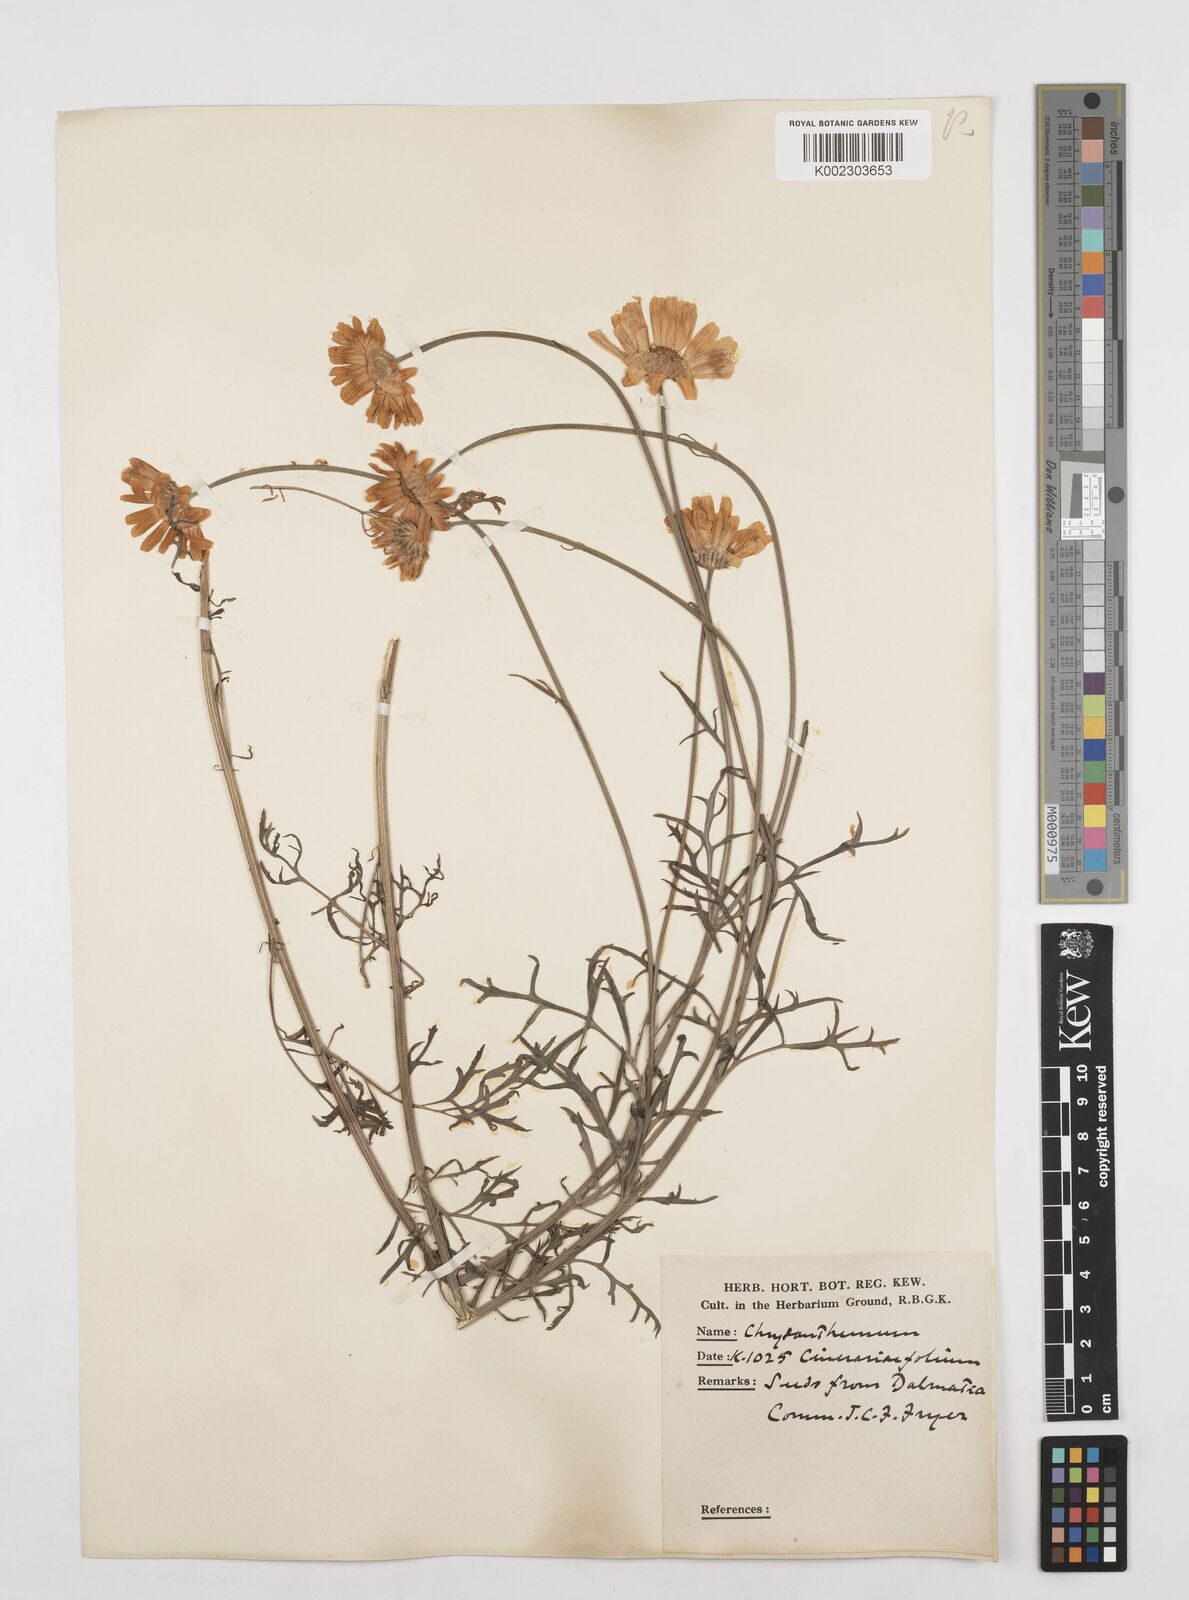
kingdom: Plantae
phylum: Tracheophyta
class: Magnoliopsida
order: Asterales
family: Asteraceae
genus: Tanacetum
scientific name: Tanacetum cinerariifolium
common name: Dalmatian pyrethrum
